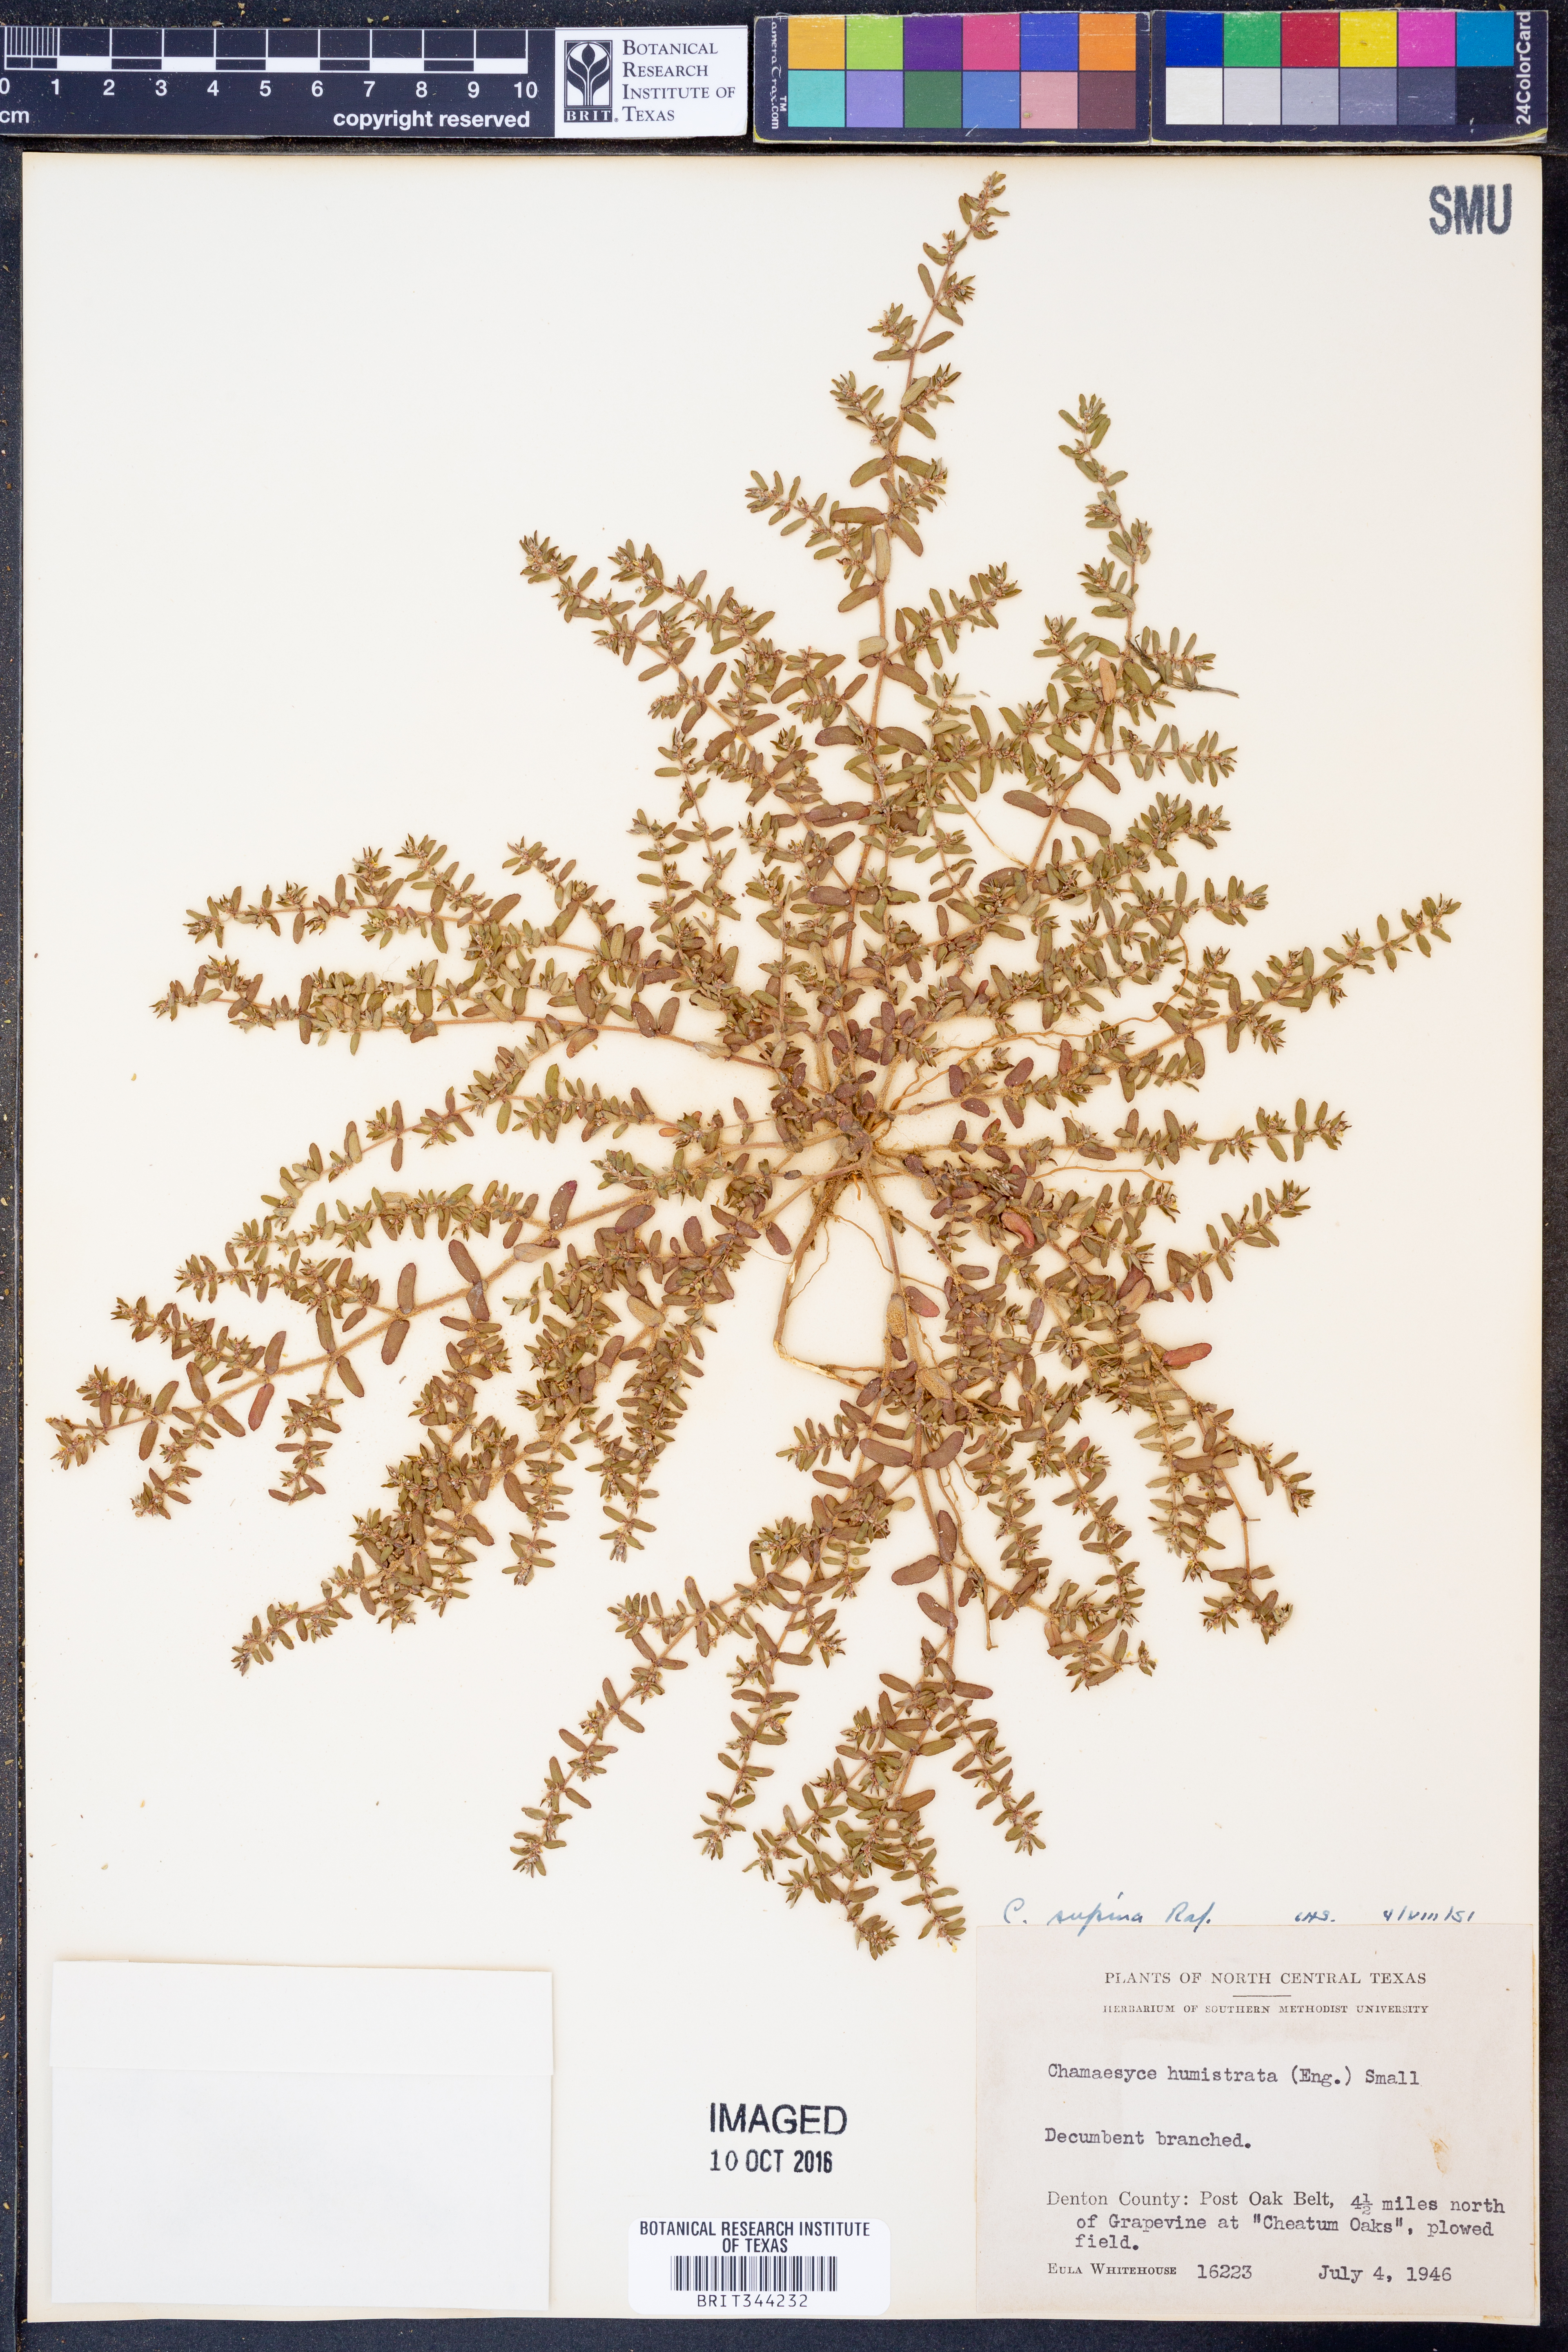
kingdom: Plantae
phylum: Tracheophyta
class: Magnoliopsida
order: Malpighiales
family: Euphorbiaceae
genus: Euphorbia
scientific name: Euphorbia maculata
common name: Spotted spurge
